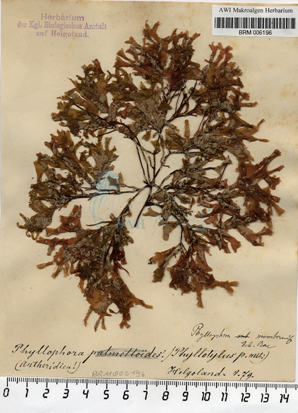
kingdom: Plantae
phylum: Rhodophyta
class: Florideophyceae
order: Gigartinales
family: Phyllophoraceae
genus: Phyllophora
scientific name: Phyllophora
